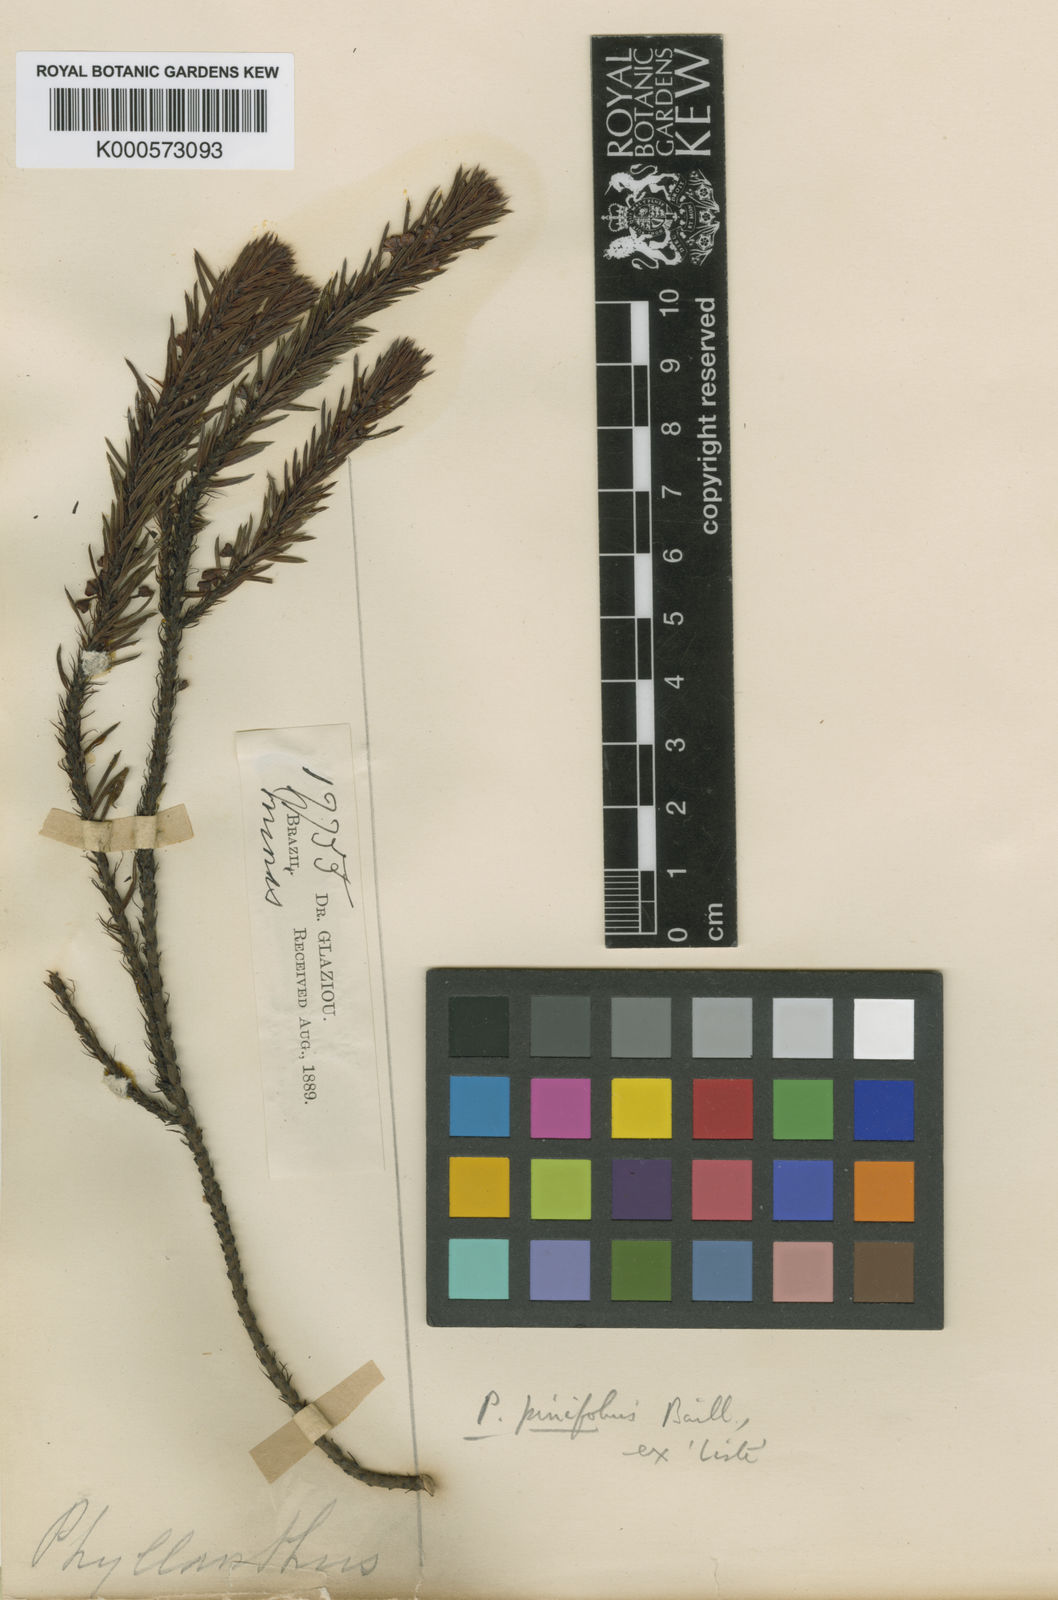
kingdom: Plantae
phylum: Tracheophyta
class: Magnoliopsida
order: Malpighiales
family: Phyllanthaceae
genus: Phyllanthus
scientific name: Phyllanthus pinifolius
